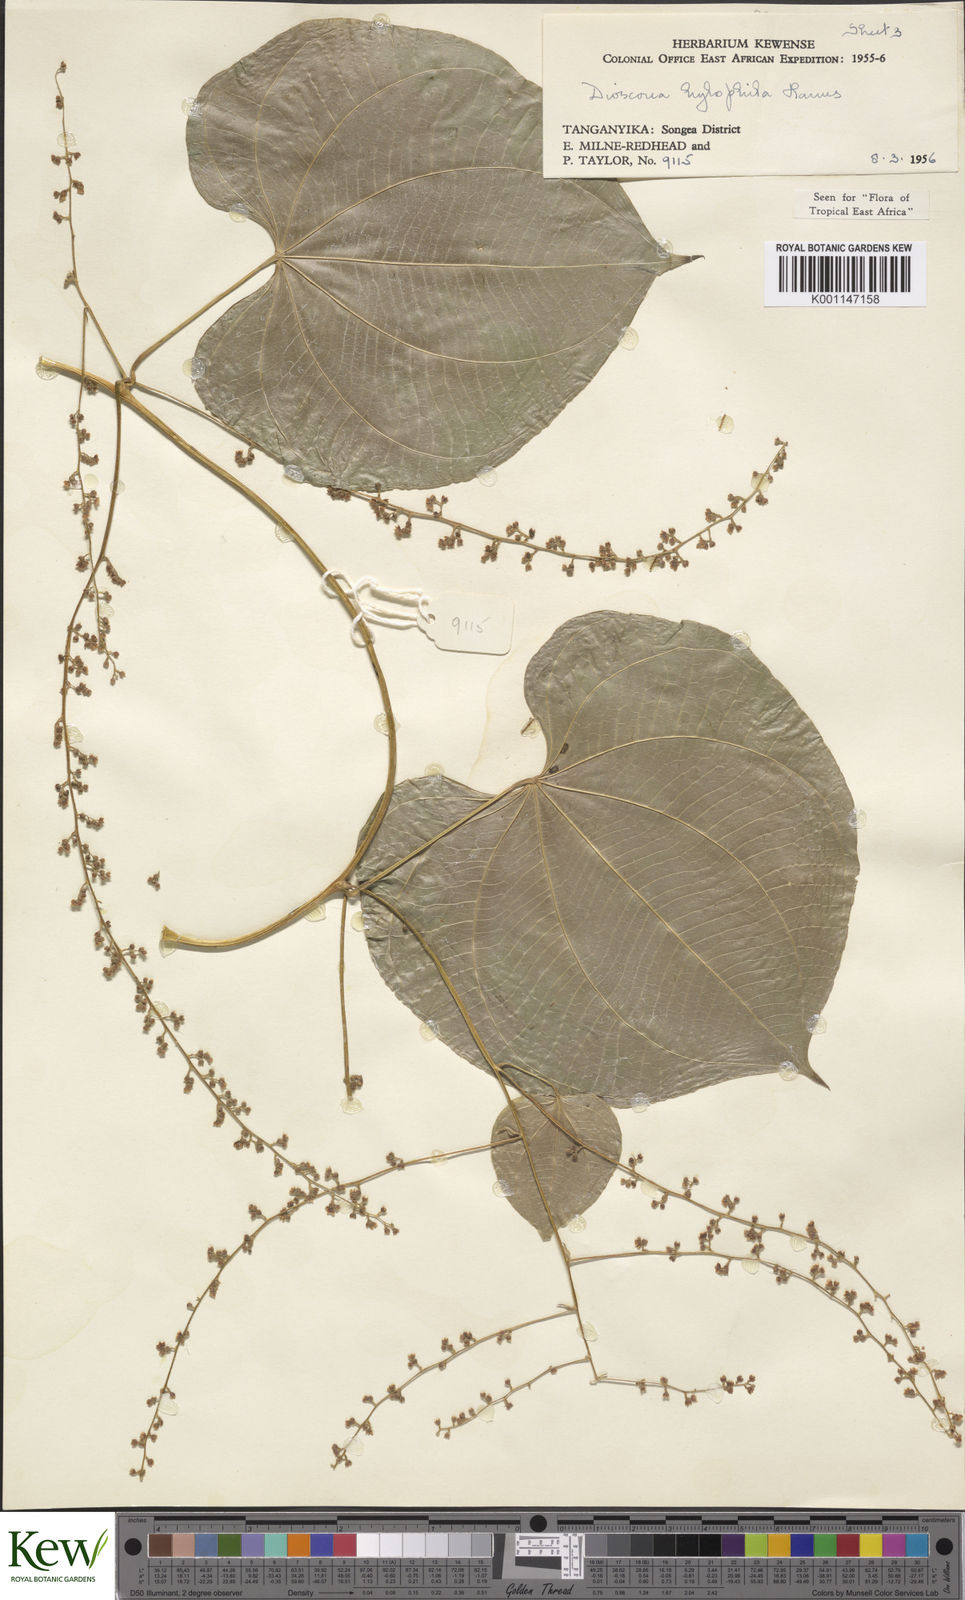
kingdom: Plantae
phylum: Tracheophyta
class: Liliopsida
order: Dioscoreales
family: Dioscoreaceae
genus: Dioscorea
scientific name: Dioscorea
